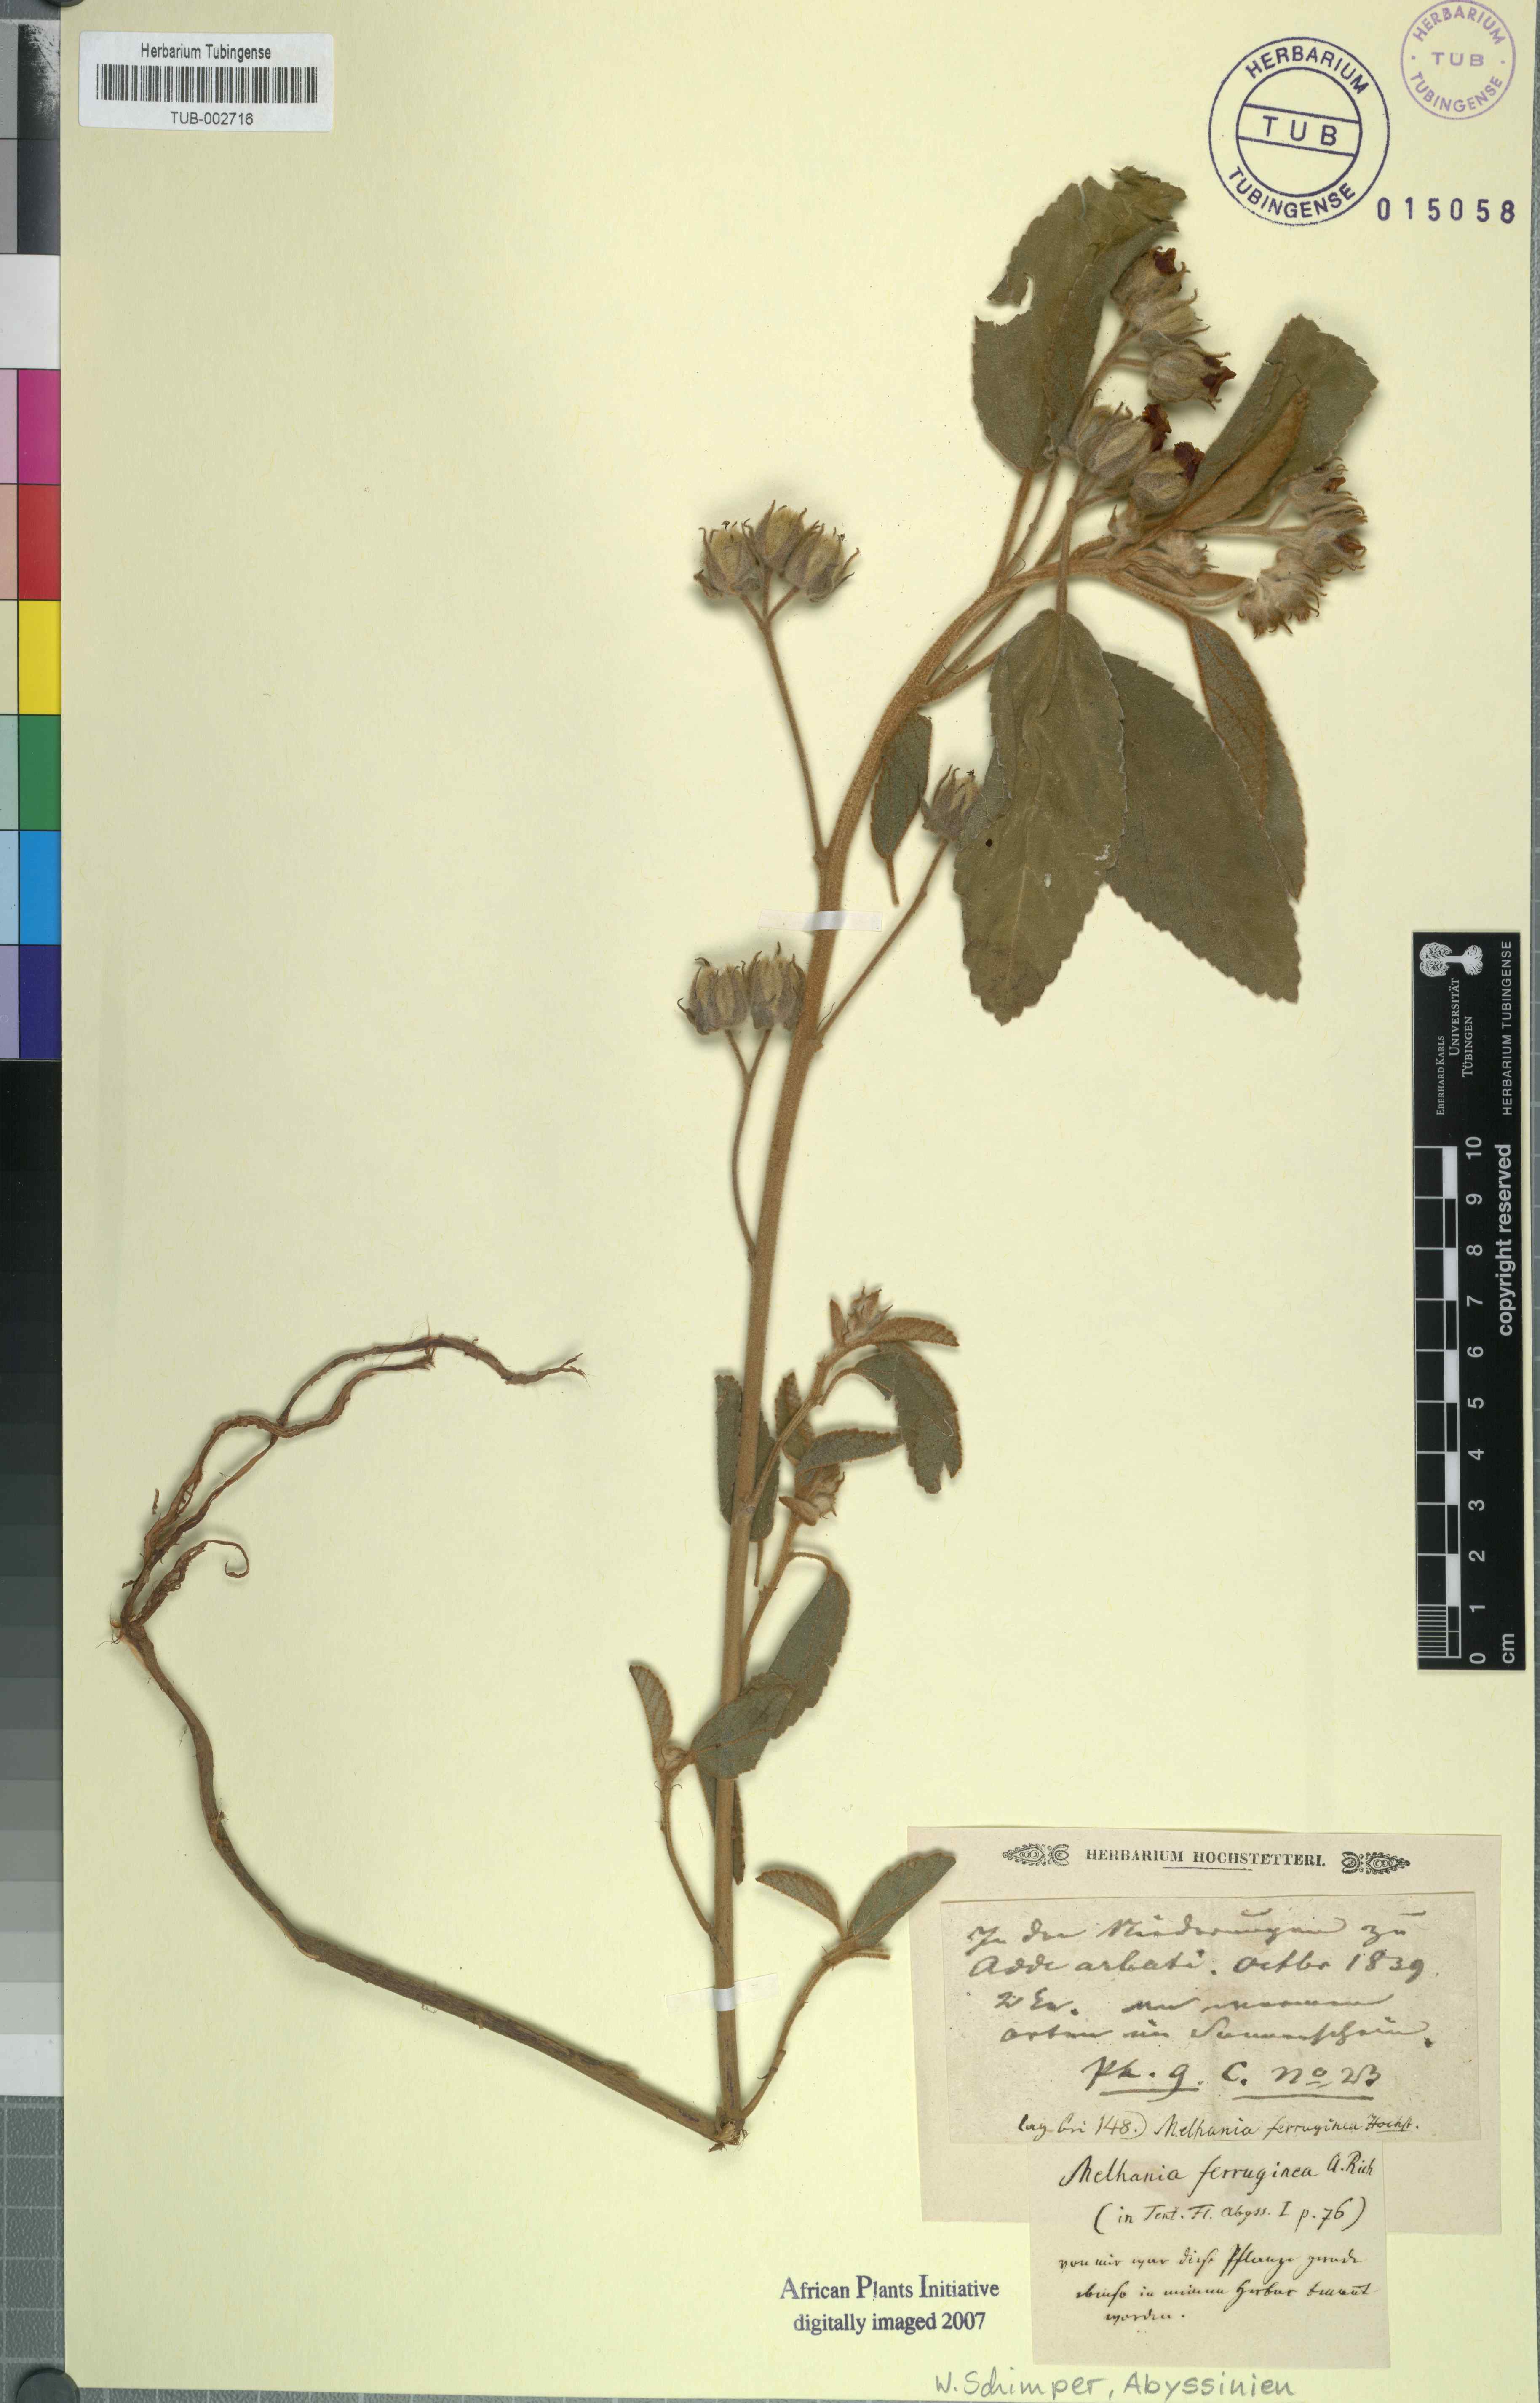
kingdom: Plantae
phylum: Tracheophyta
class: Magnoliopsida
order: Malvales
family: Malvaceae
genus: Melhania
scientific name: Melhania velutina
